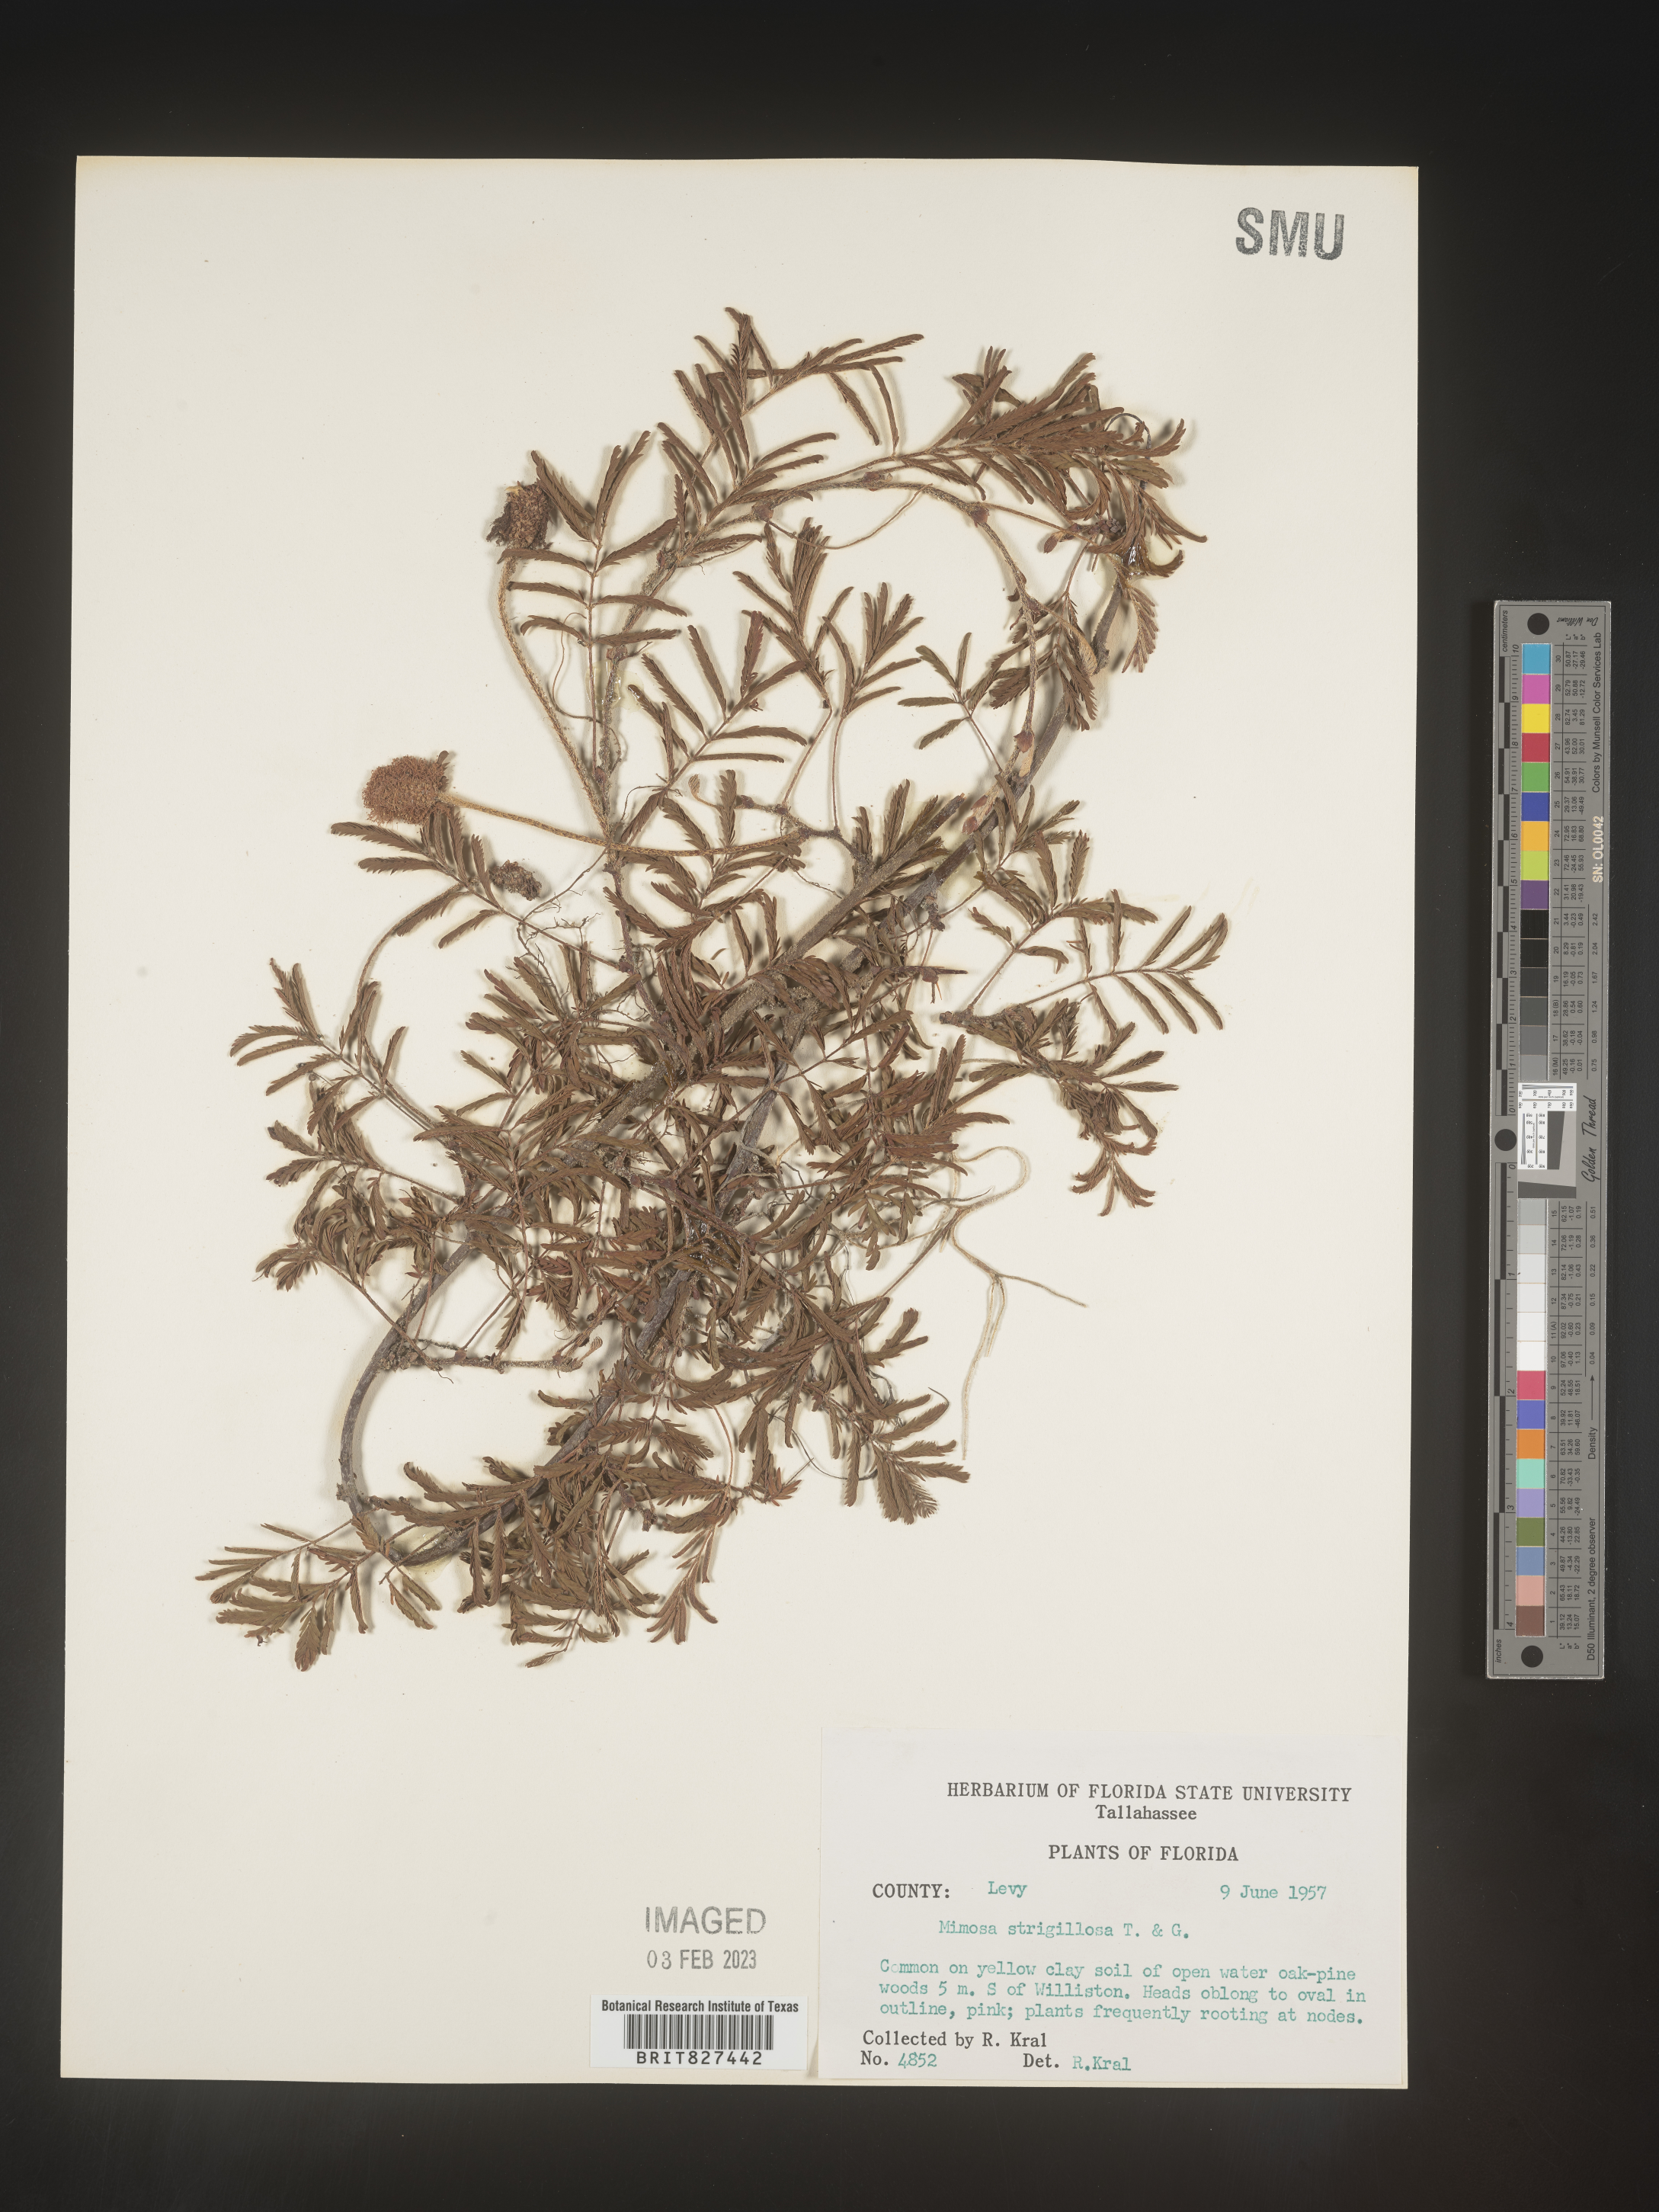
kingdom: Plantae
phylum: Tracheophyta
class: Magnoliopsida
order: Fabales
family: Fabaceae
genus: Mimosa
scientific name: Mimosa strigillosa
